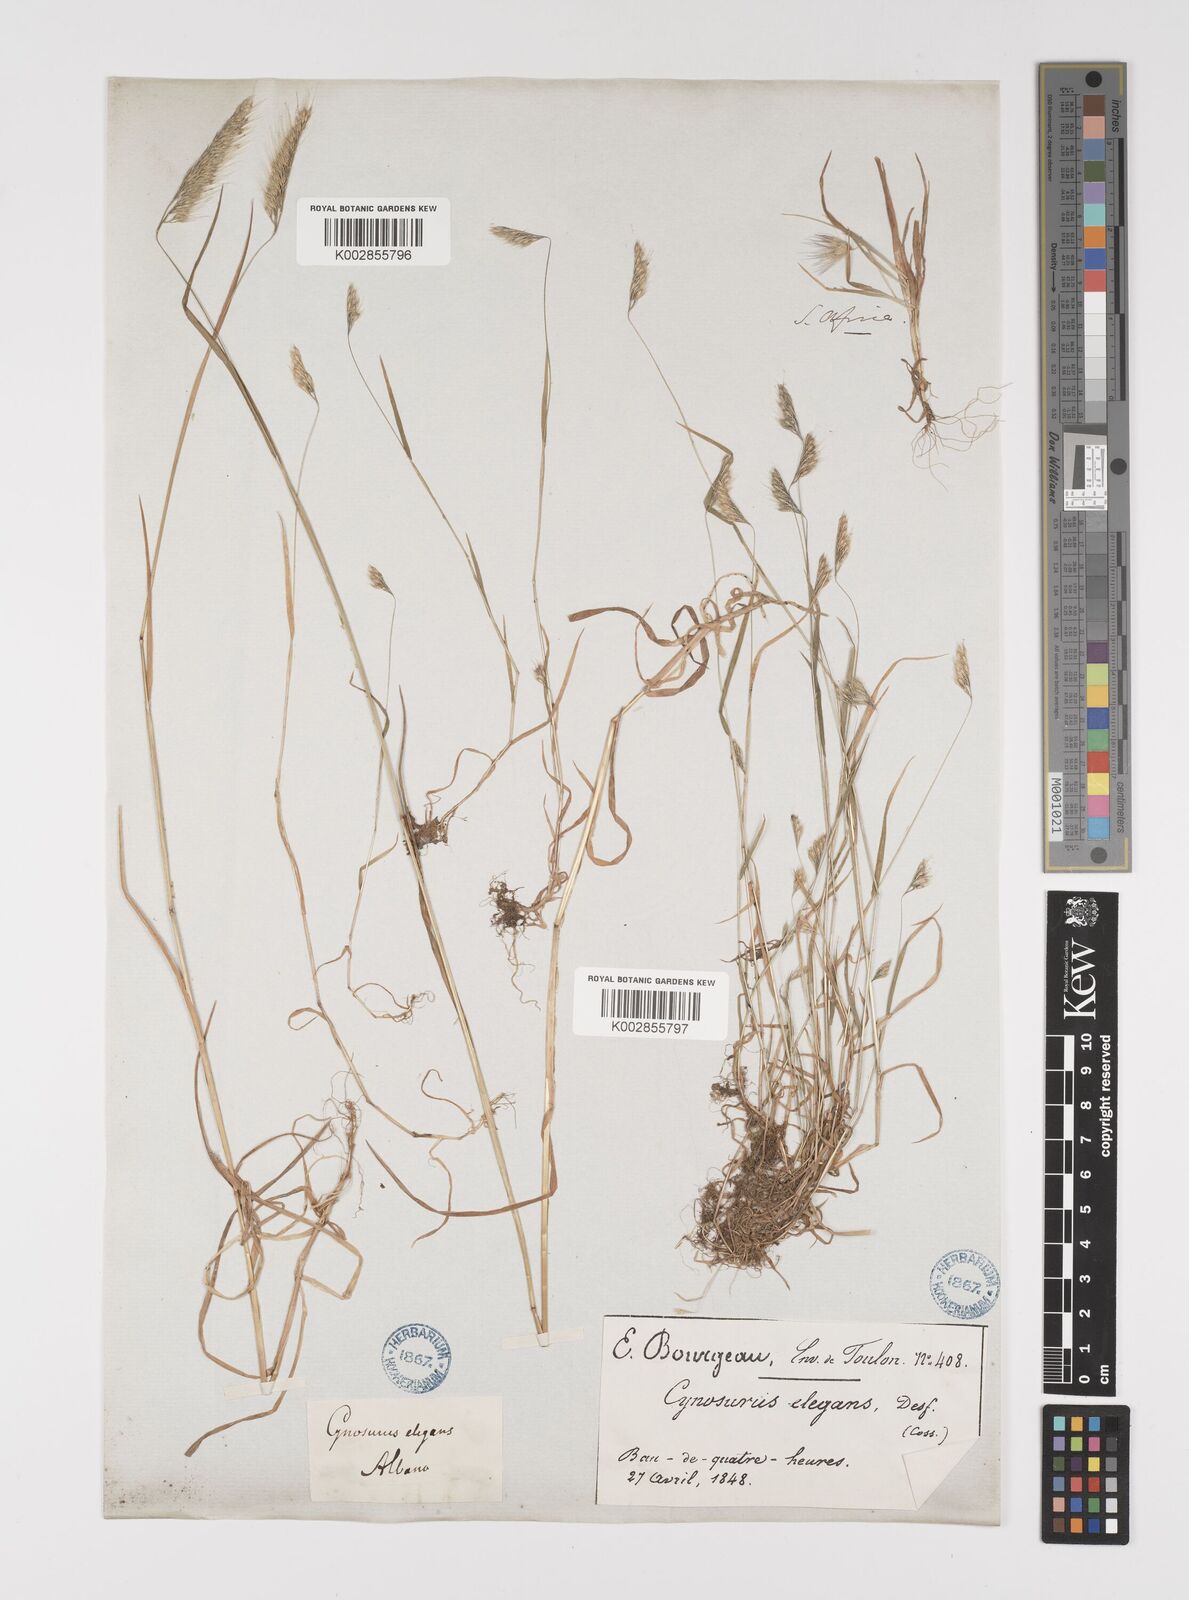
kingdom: Plantae
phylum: Tracheophyta
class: Liliopsida
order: Poales
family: Poaceae
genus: Cynosurus
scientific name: Cynosurus elegans
